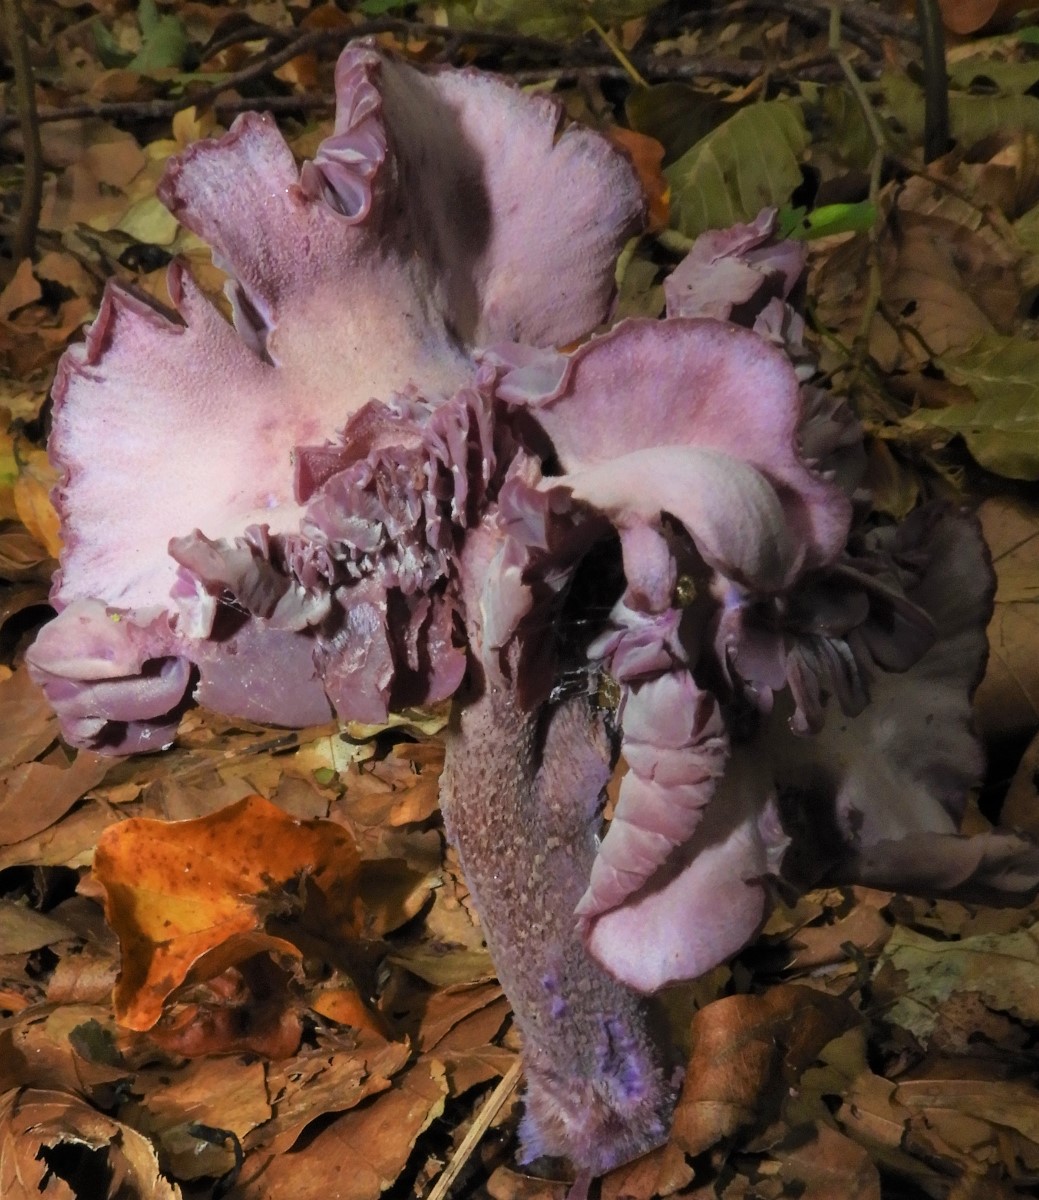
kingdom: Fungi
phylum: Basidiomycota
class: Agaricomycetes
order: Agaricales
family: Hydnangiaceae
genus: Laccaria
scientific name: Laccaria amethystina
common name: violet ametysthat
